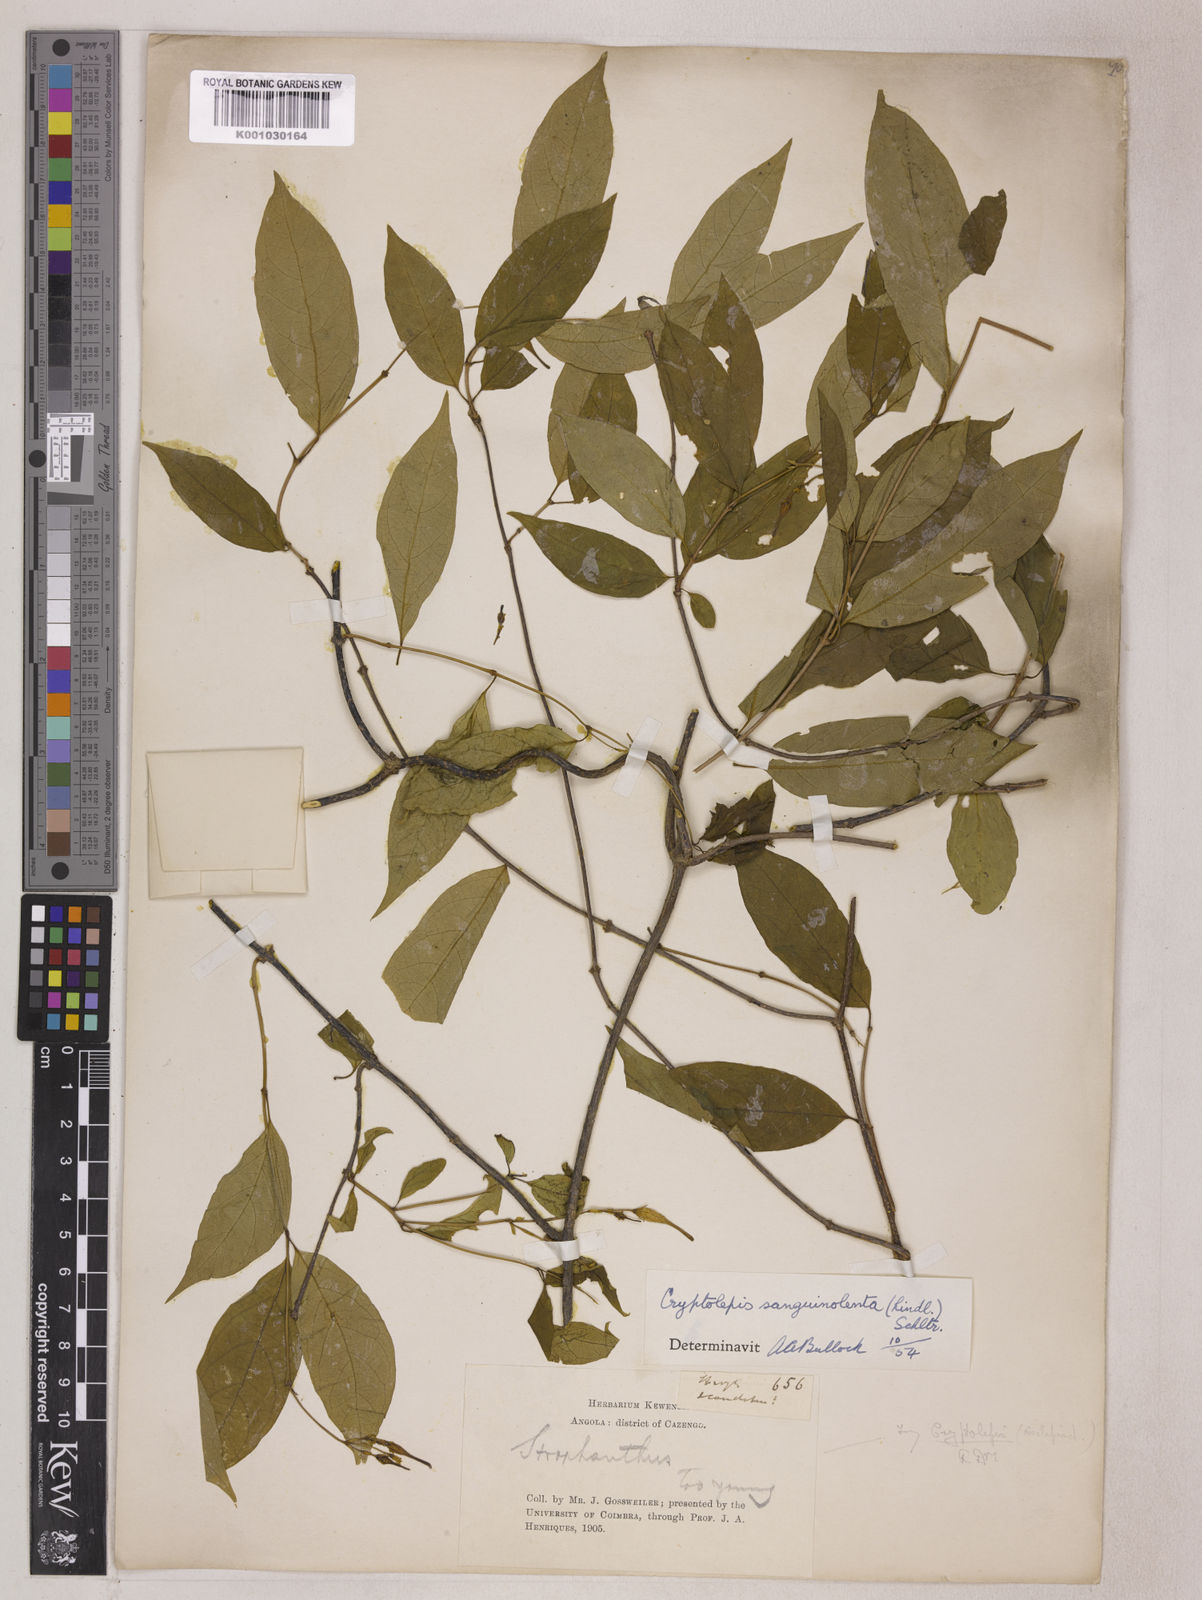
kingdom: Plantae
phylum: Tracheophyta
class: Magnoliopsida
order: Gentianales
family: Apocynaceae
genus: Cryptolepis
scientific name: Cryptolepis sanguinolenta
